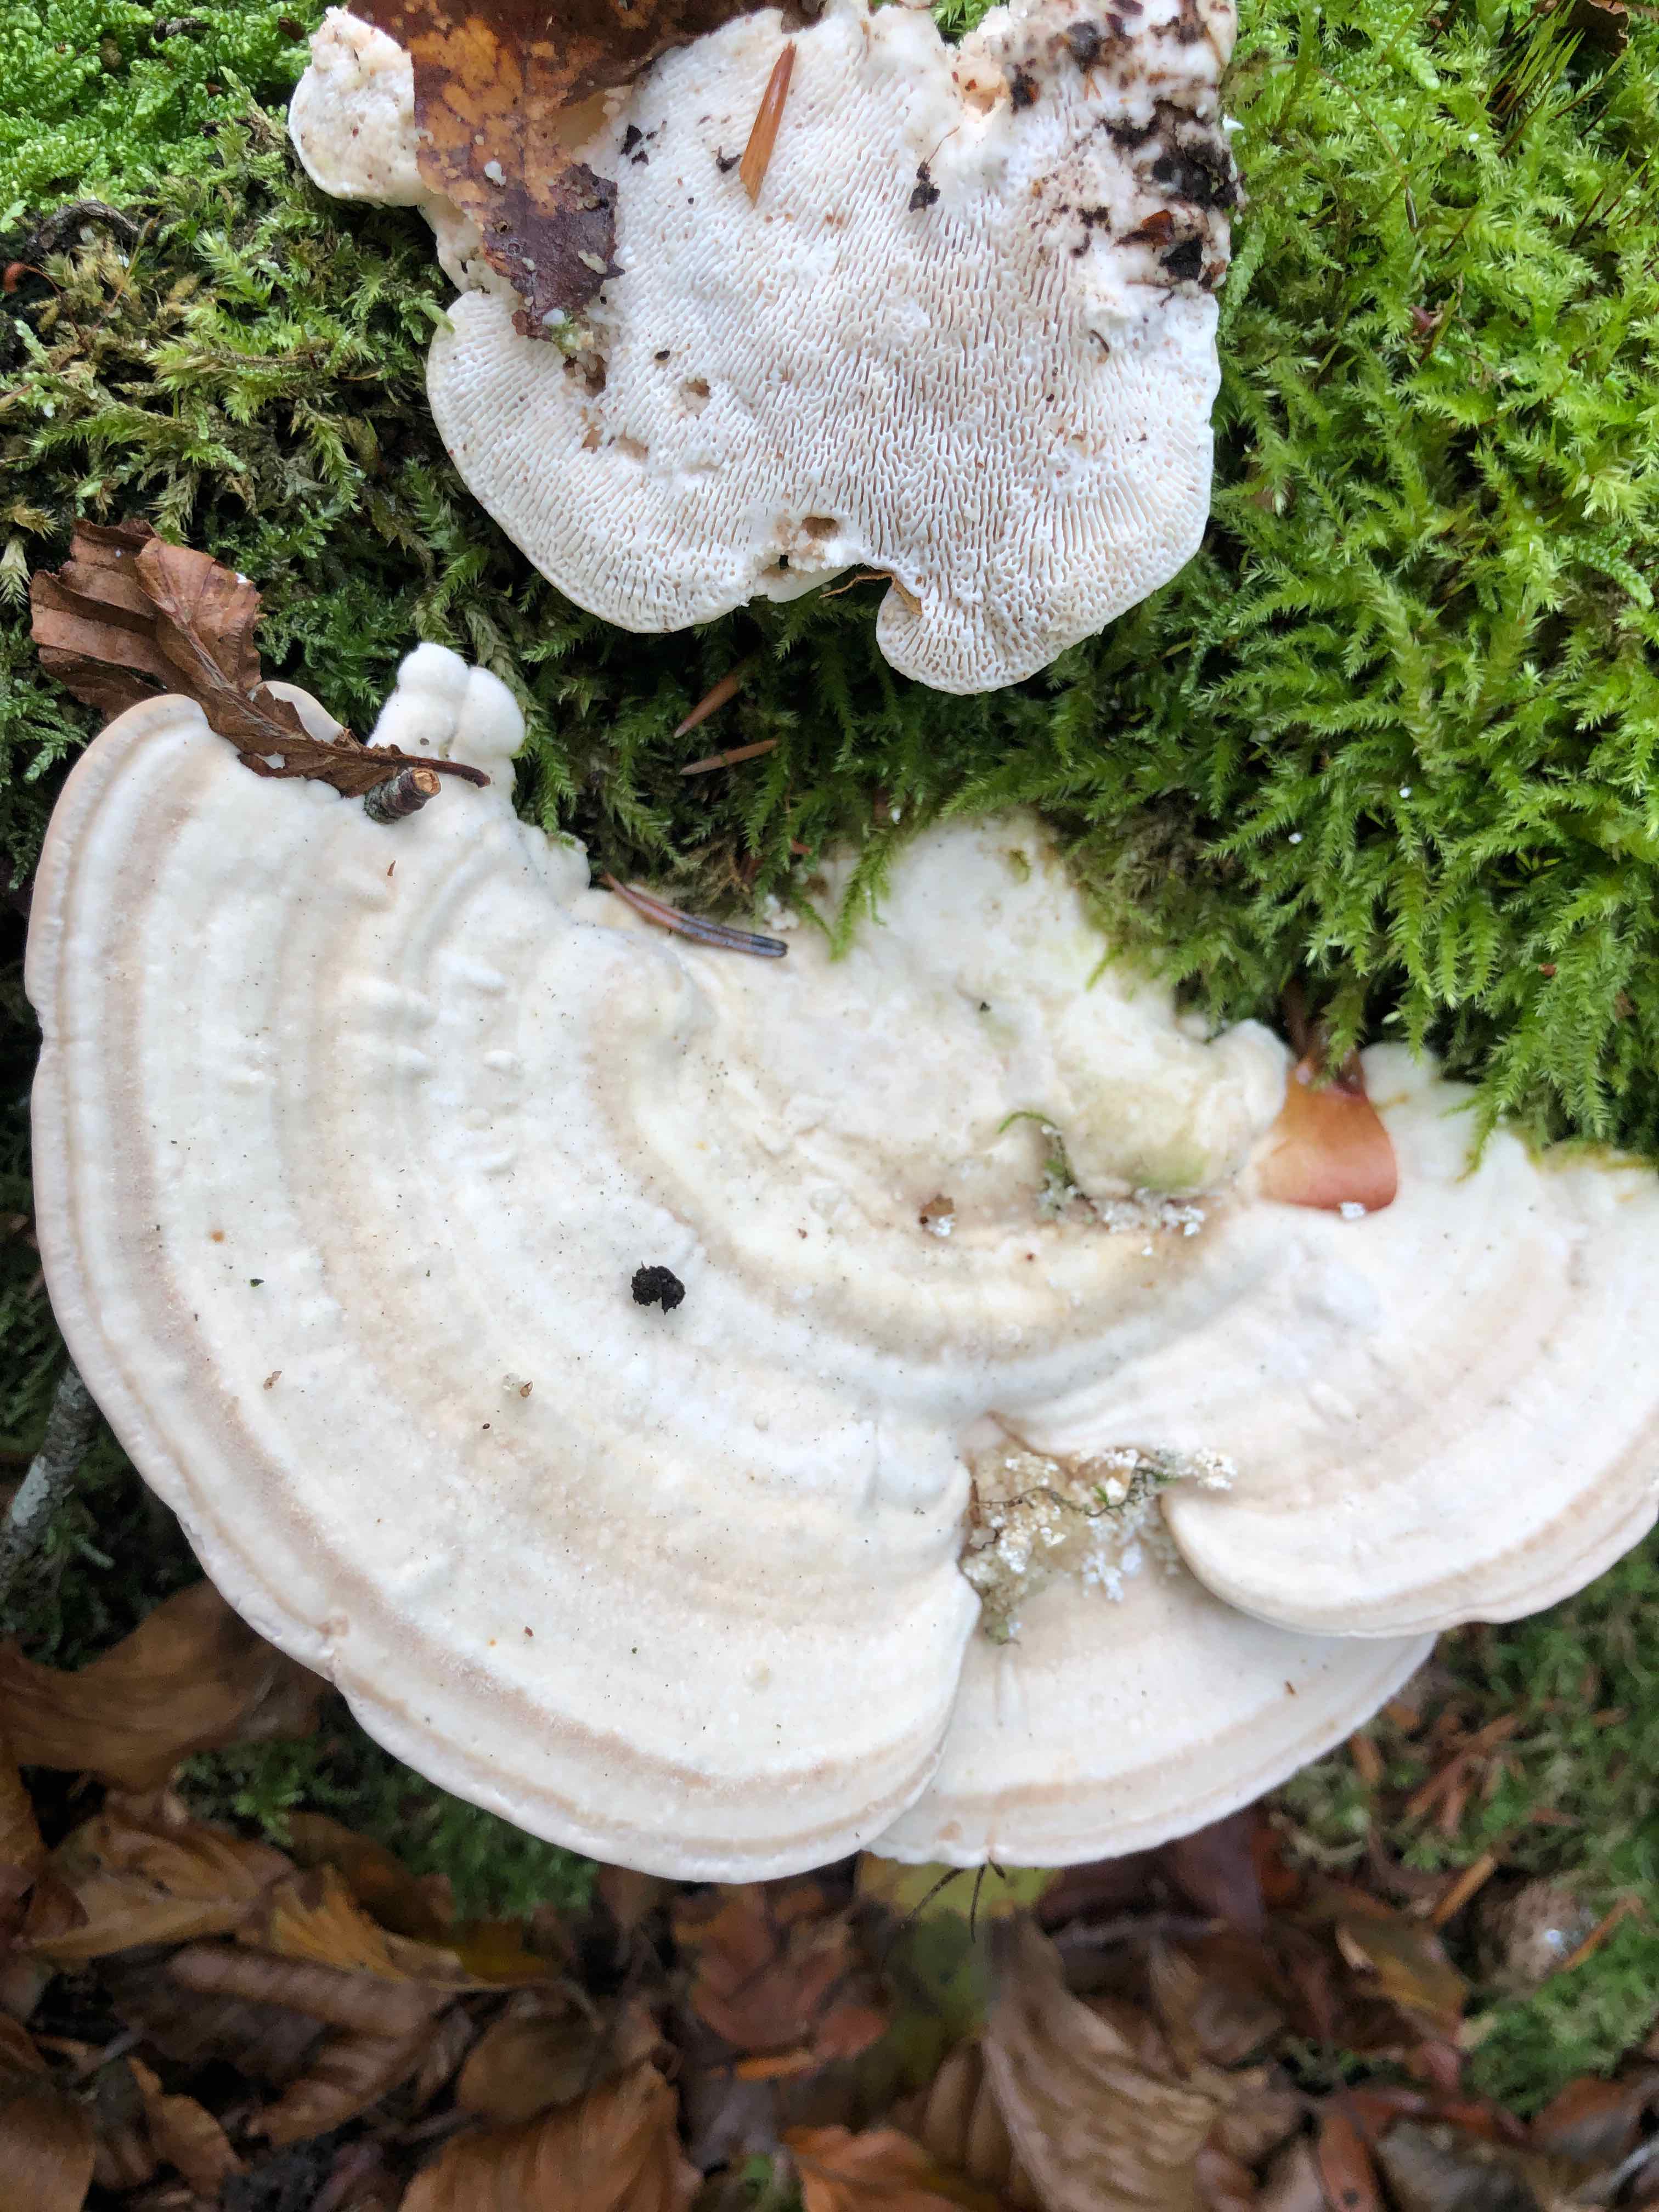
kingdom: Fungi
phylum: Basidiomycota
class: Agaricomycetes
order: Polyporales
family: Polyporaceae
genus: Trametes
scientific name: Trametes gibbosa
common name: puklet læderporesvamp
